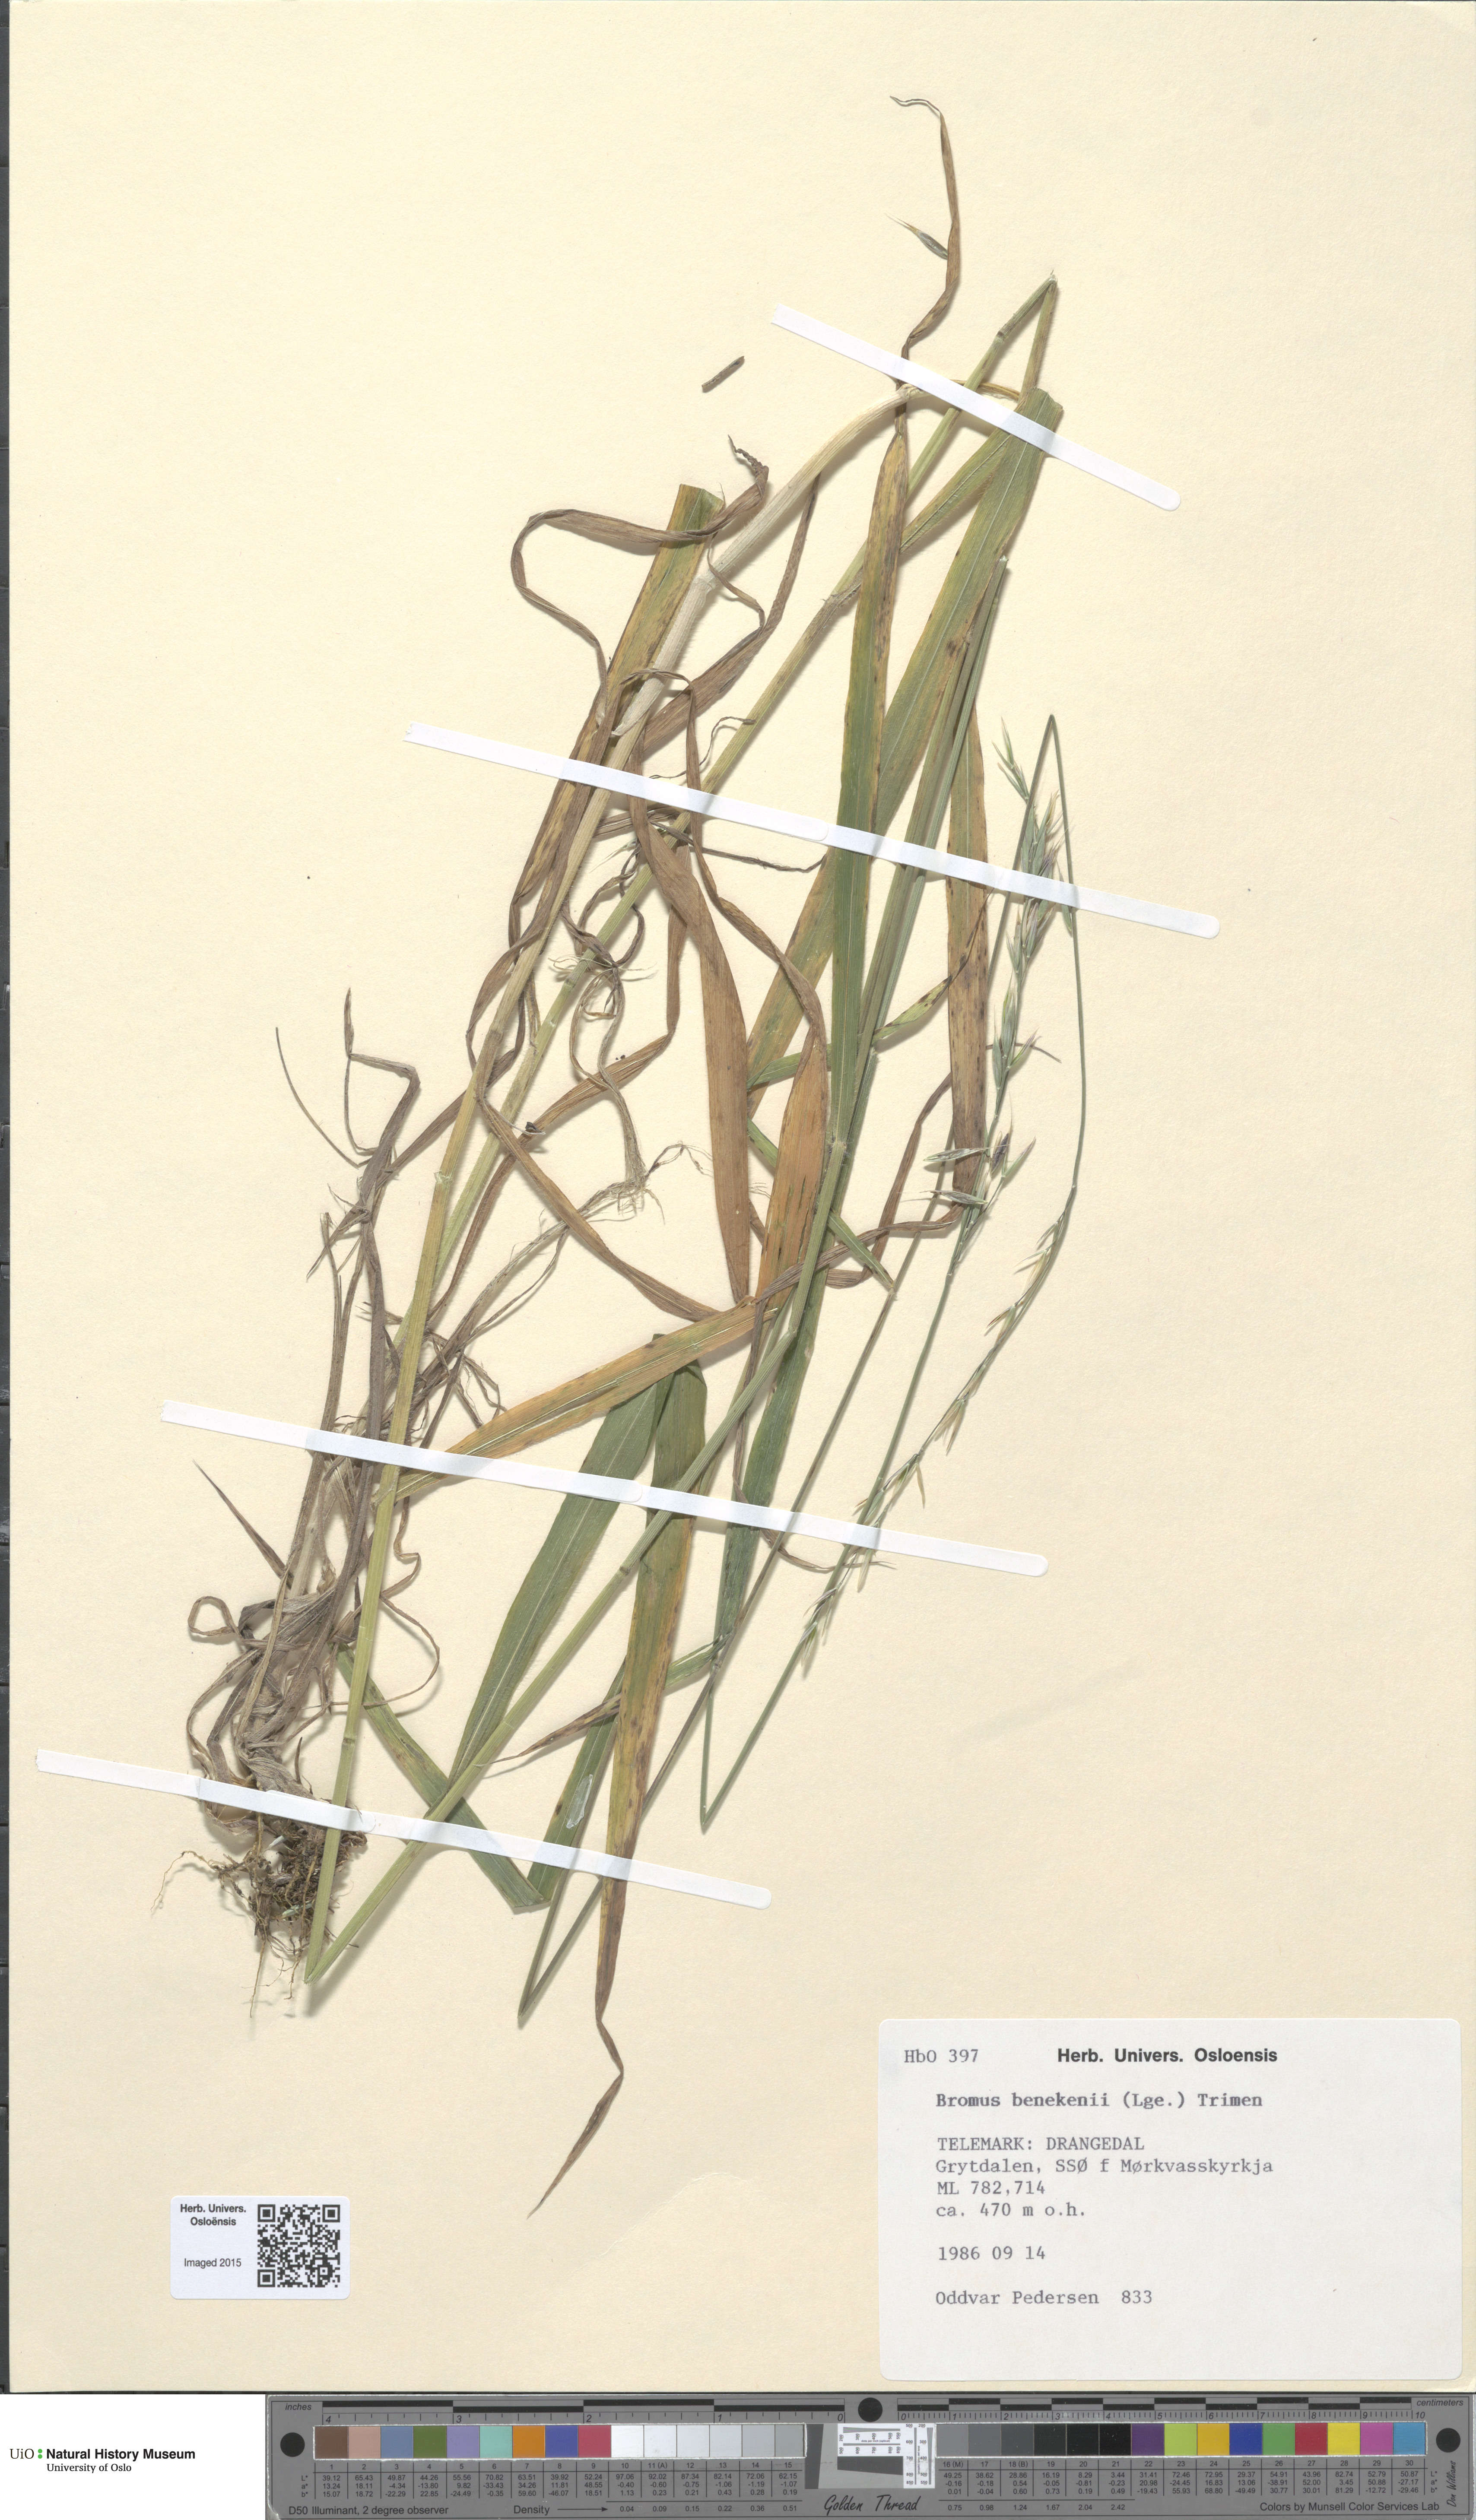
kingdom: Plantae
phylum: Tracheophyta
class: Liliopsida
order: Poales
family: Poaceae
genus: Bromus
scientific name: Bromus benekenii
